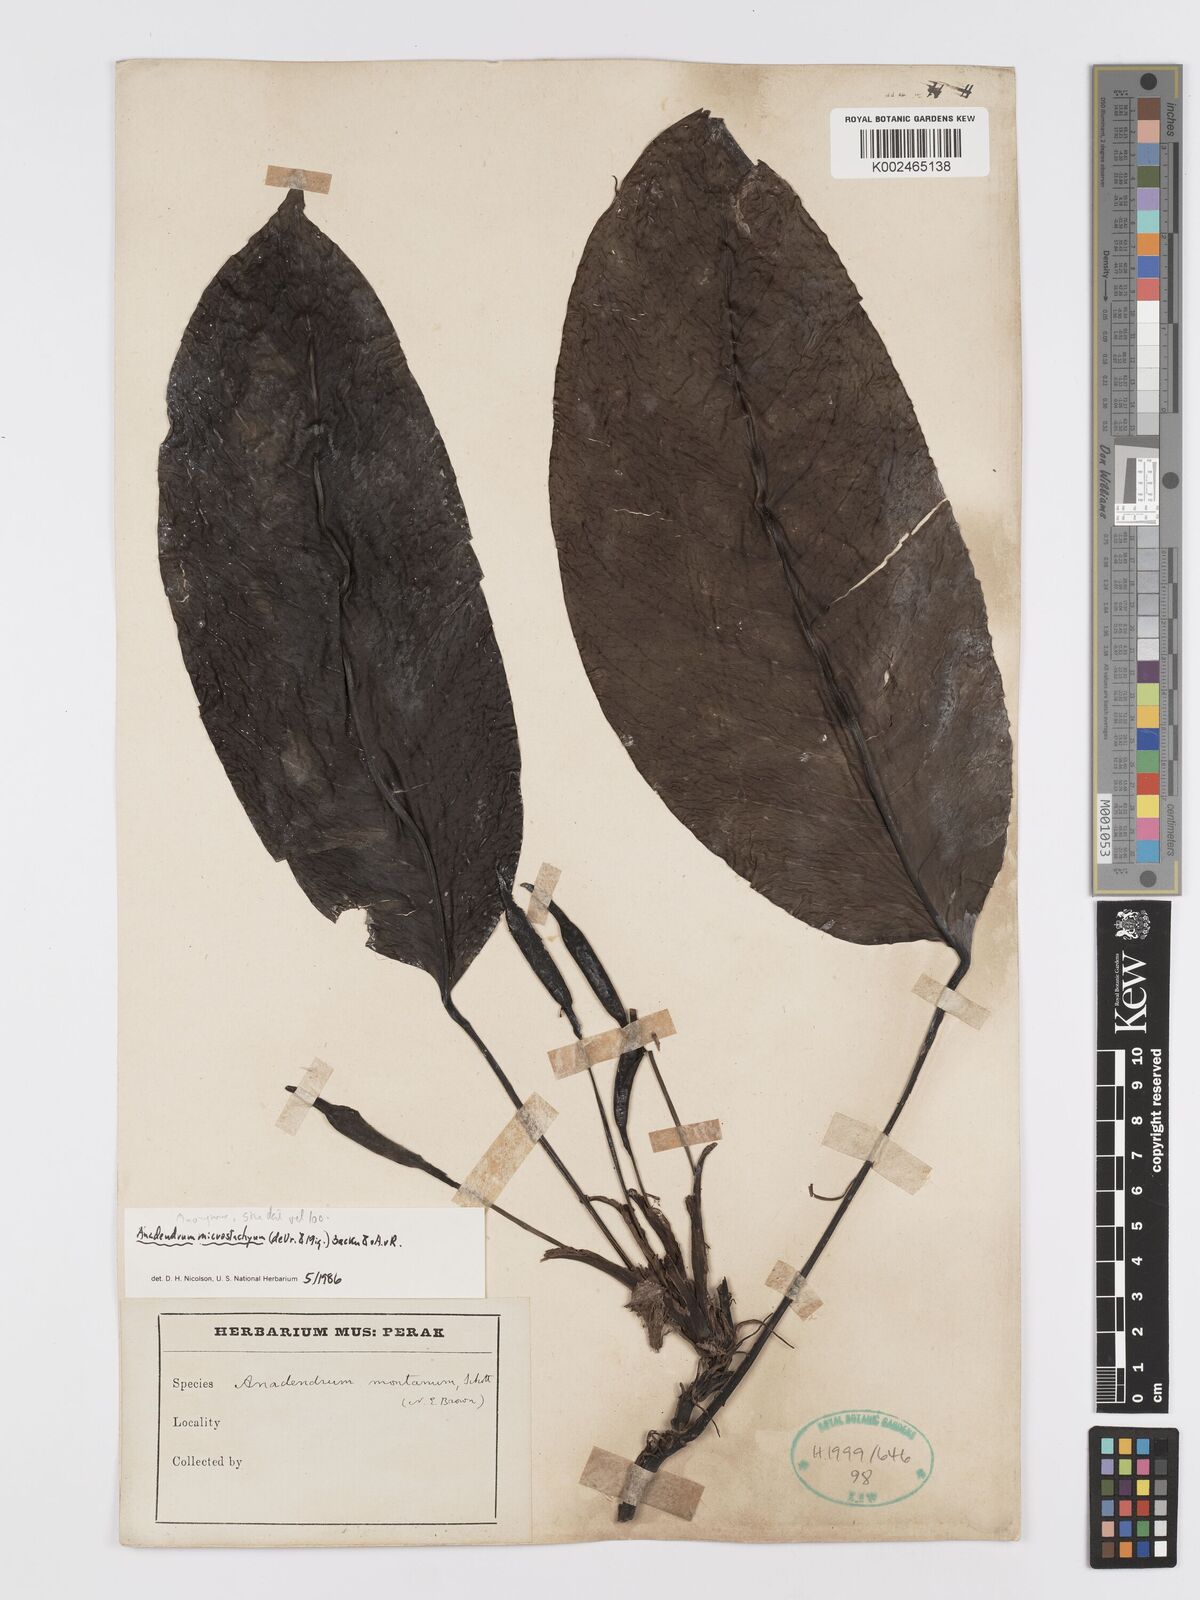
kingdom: Plantae
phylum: Tracheophyta
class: Liliopsida
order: Alismatales
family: Araceae
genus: Anadendrum
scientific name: Anadendrum microstachyum
